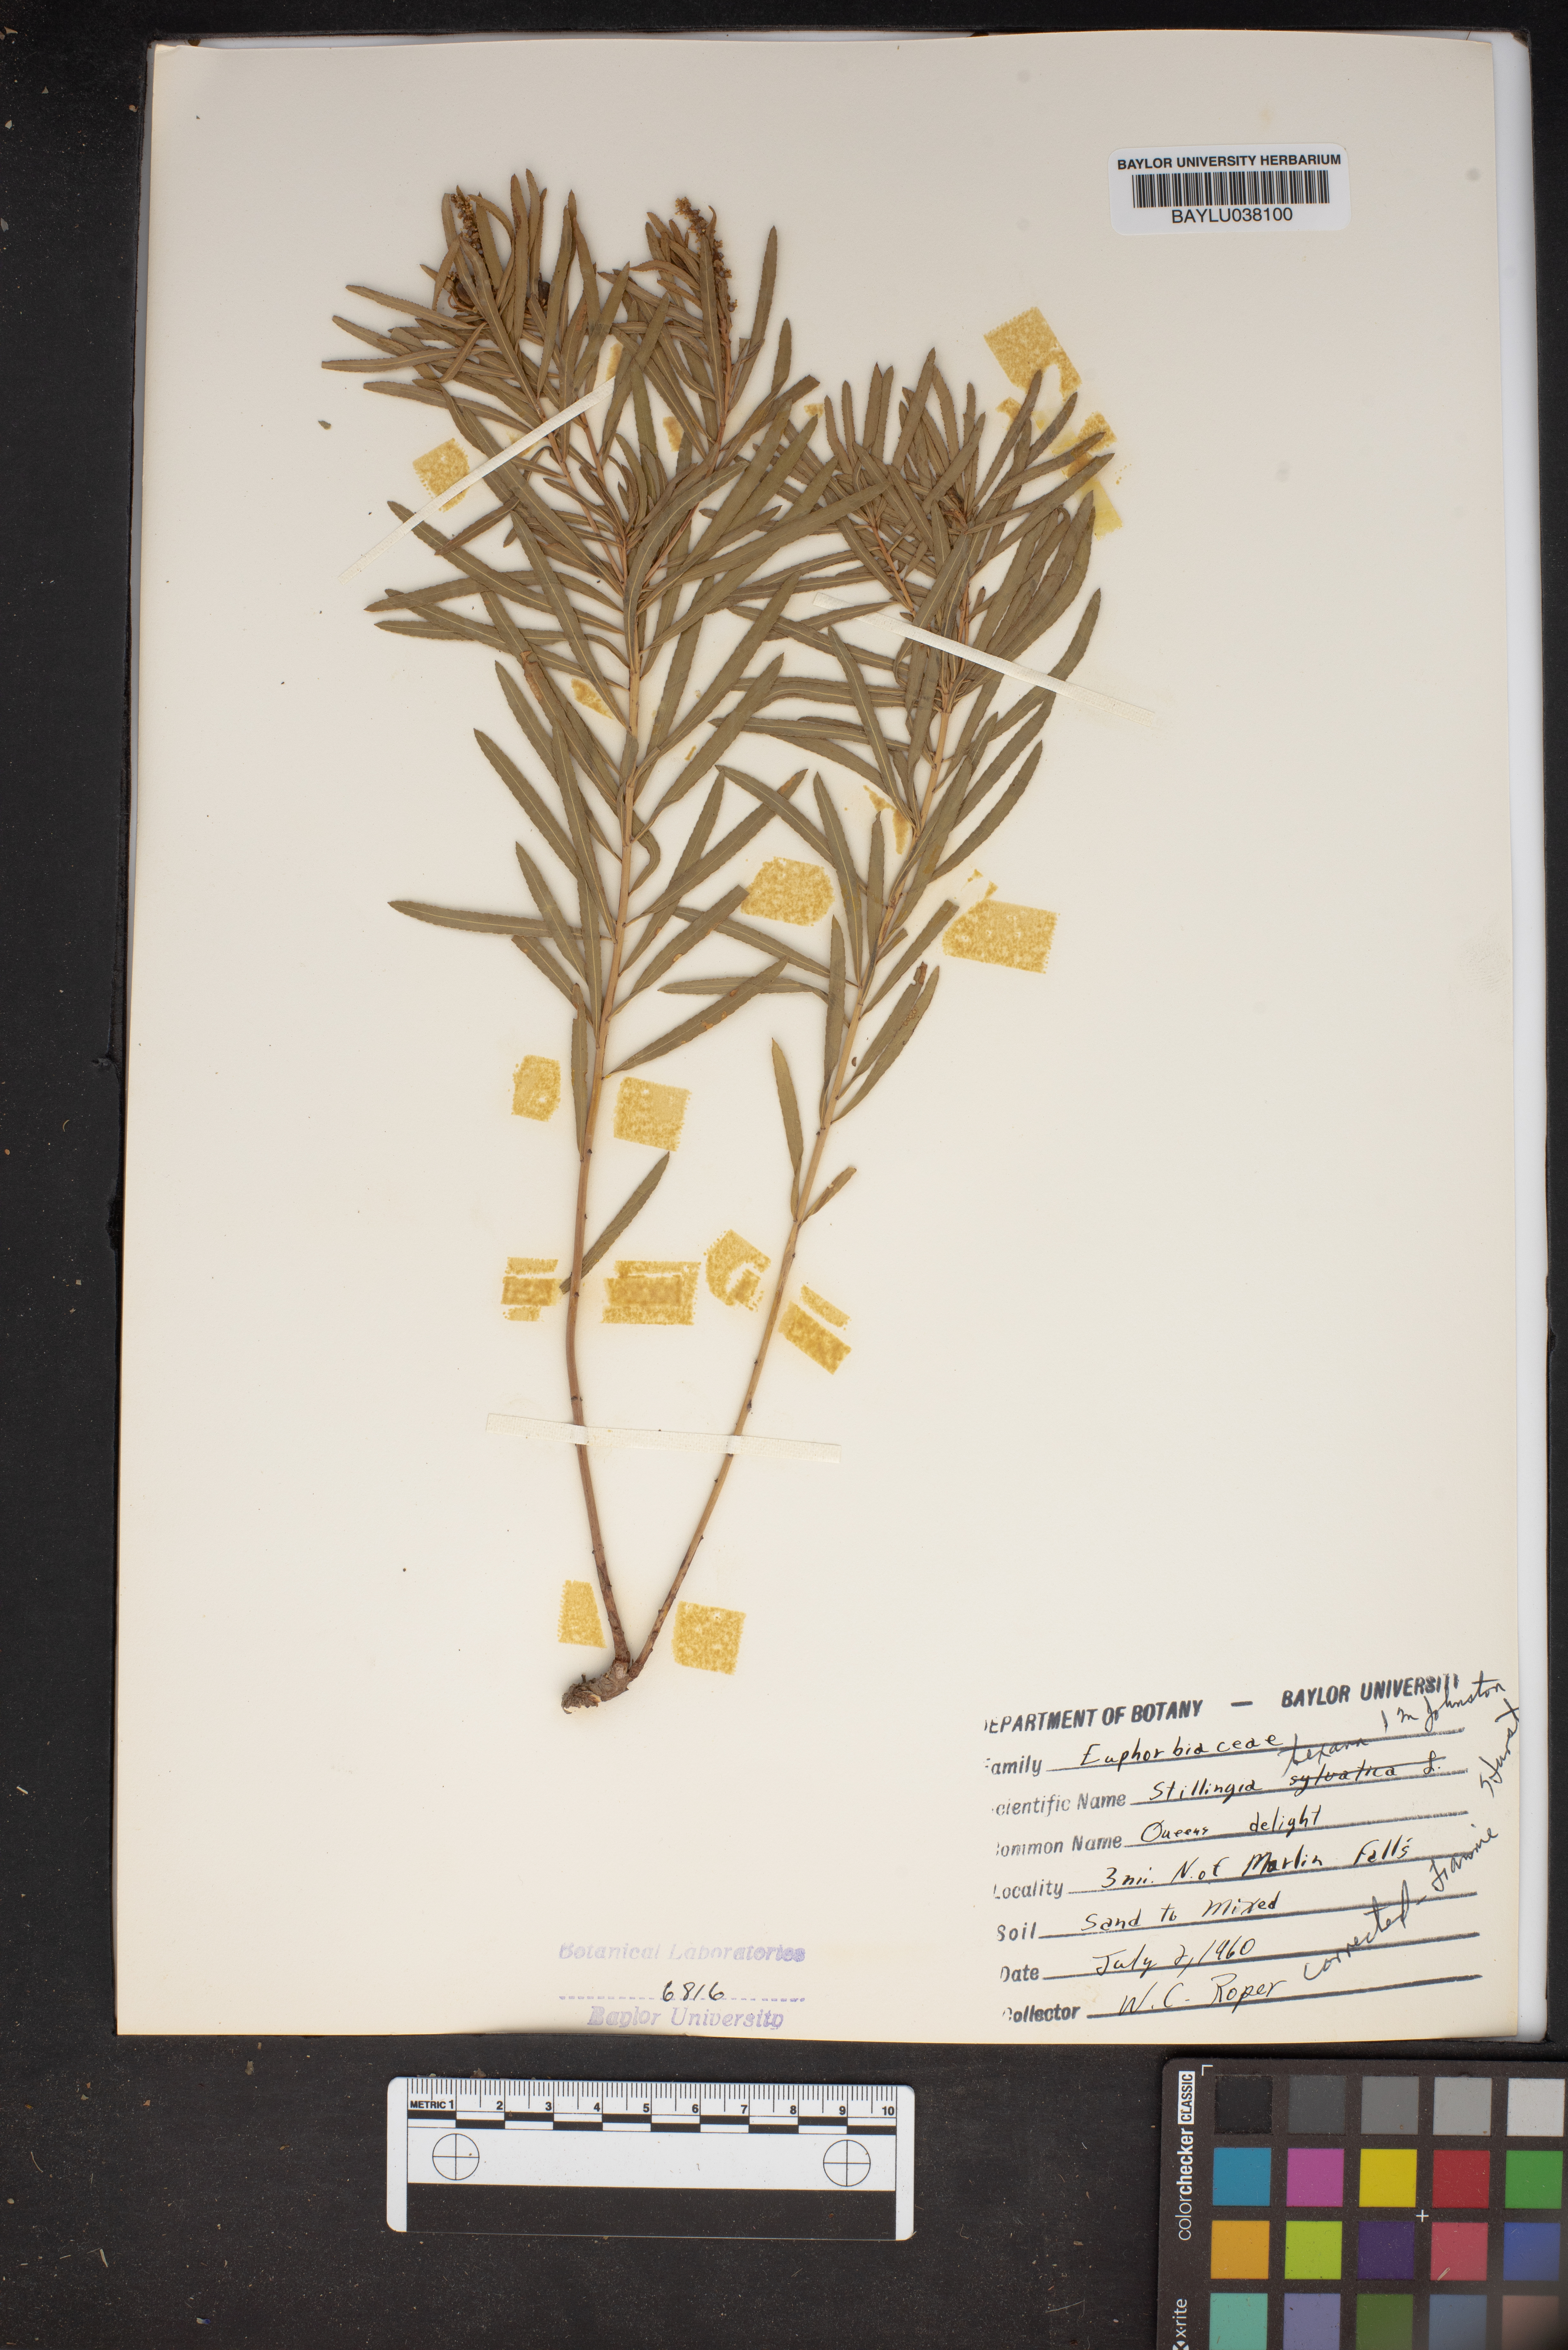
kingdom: Plantae
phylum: Tracheophyta
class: Magnoliopsida
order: Malpighiales
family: Euphorbiaceae
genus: Stillingia
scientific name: Stillingia texana
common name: Texas stillingia
